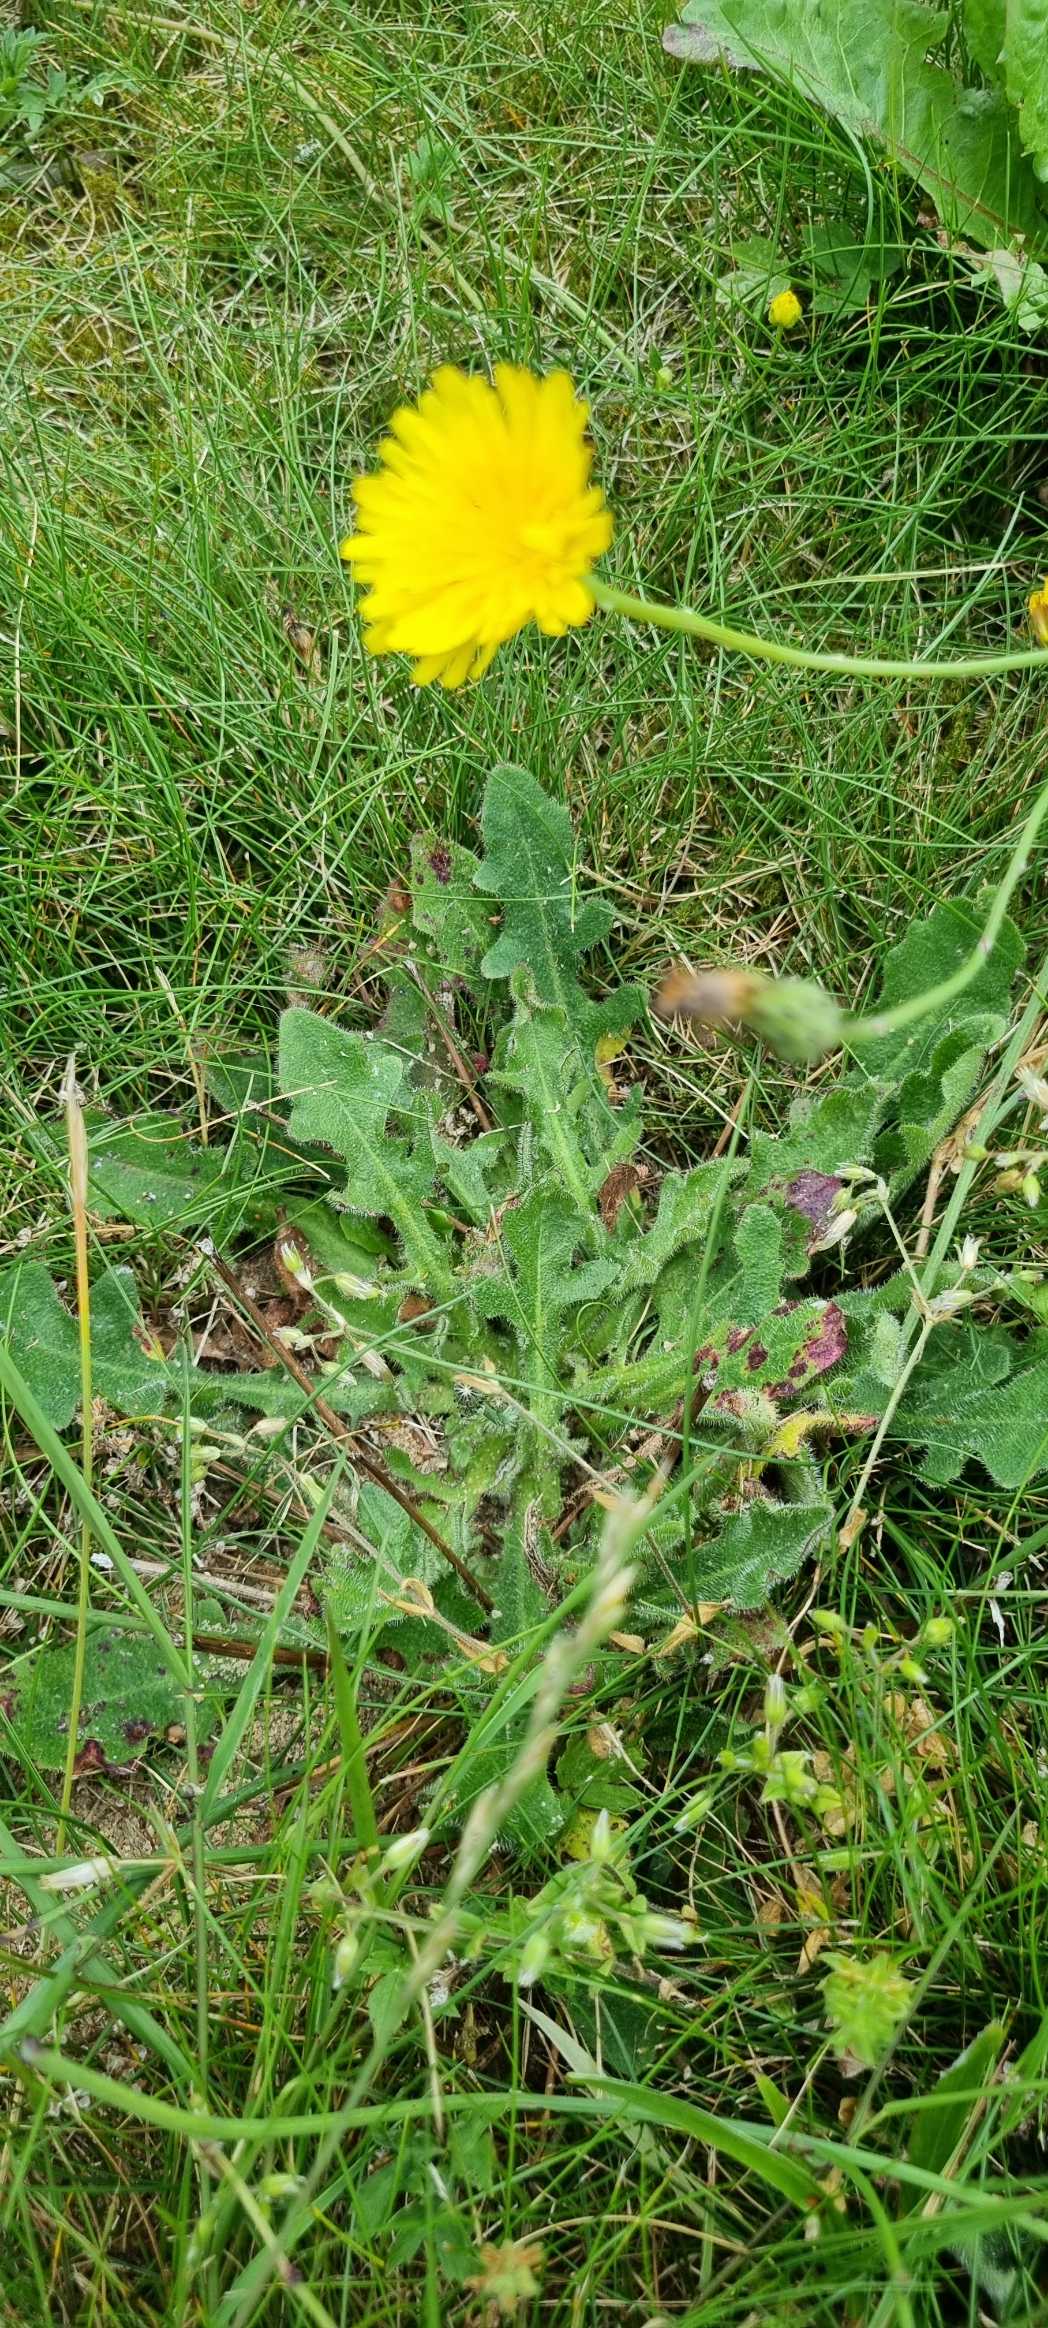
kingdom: Plantae
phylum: Tracheophyta
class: Magnoliopsida
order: Asterales
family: Asteraceae
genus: Hypochaeris
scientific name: Hypochaeris radicata
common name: Almindelig kongepen
